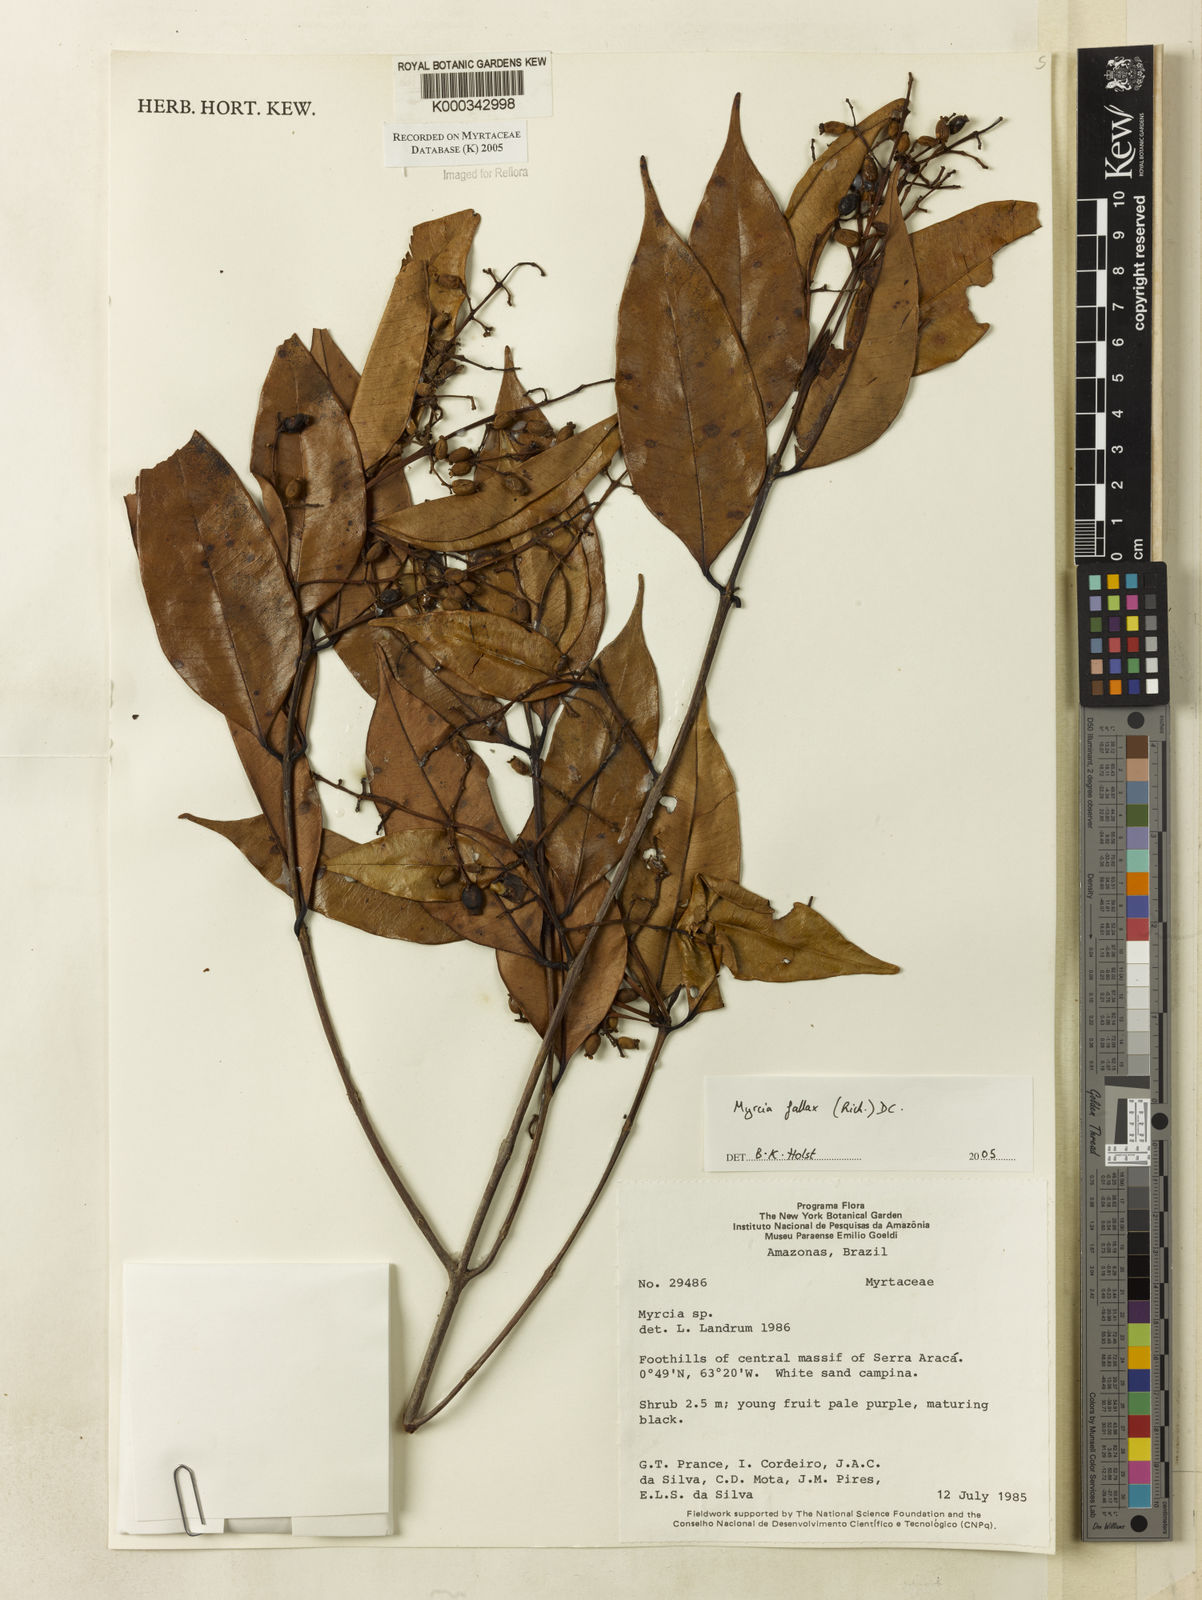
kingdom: Plantae
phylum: Tracheophyta
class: Magnoliopsida
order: Myrtales
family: Myrtaceae
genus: Myrcia
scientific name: Myrcia splendens
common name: Surinam cherry
